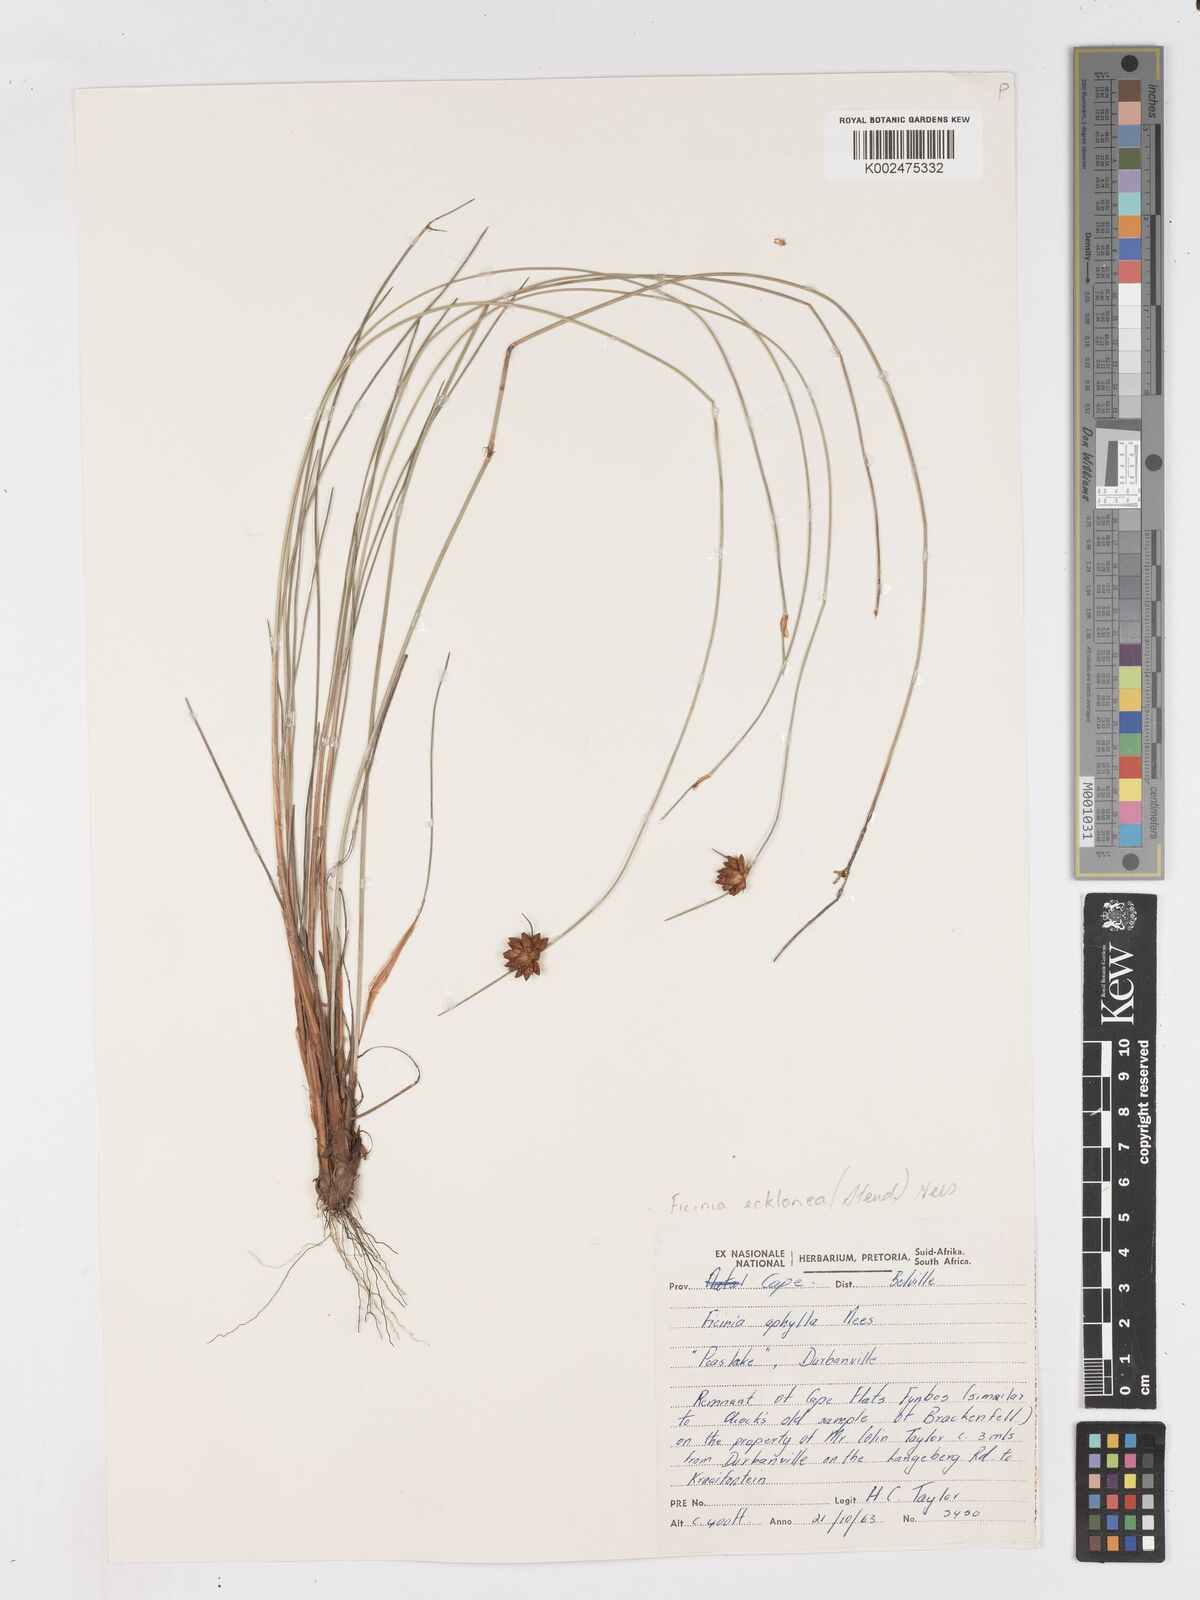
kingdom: Plantae
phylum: Tracheophyta
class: Liliopsida
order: Poales
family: Cyperaceae
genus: Ficinia
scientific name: Ficinia ecklonea
